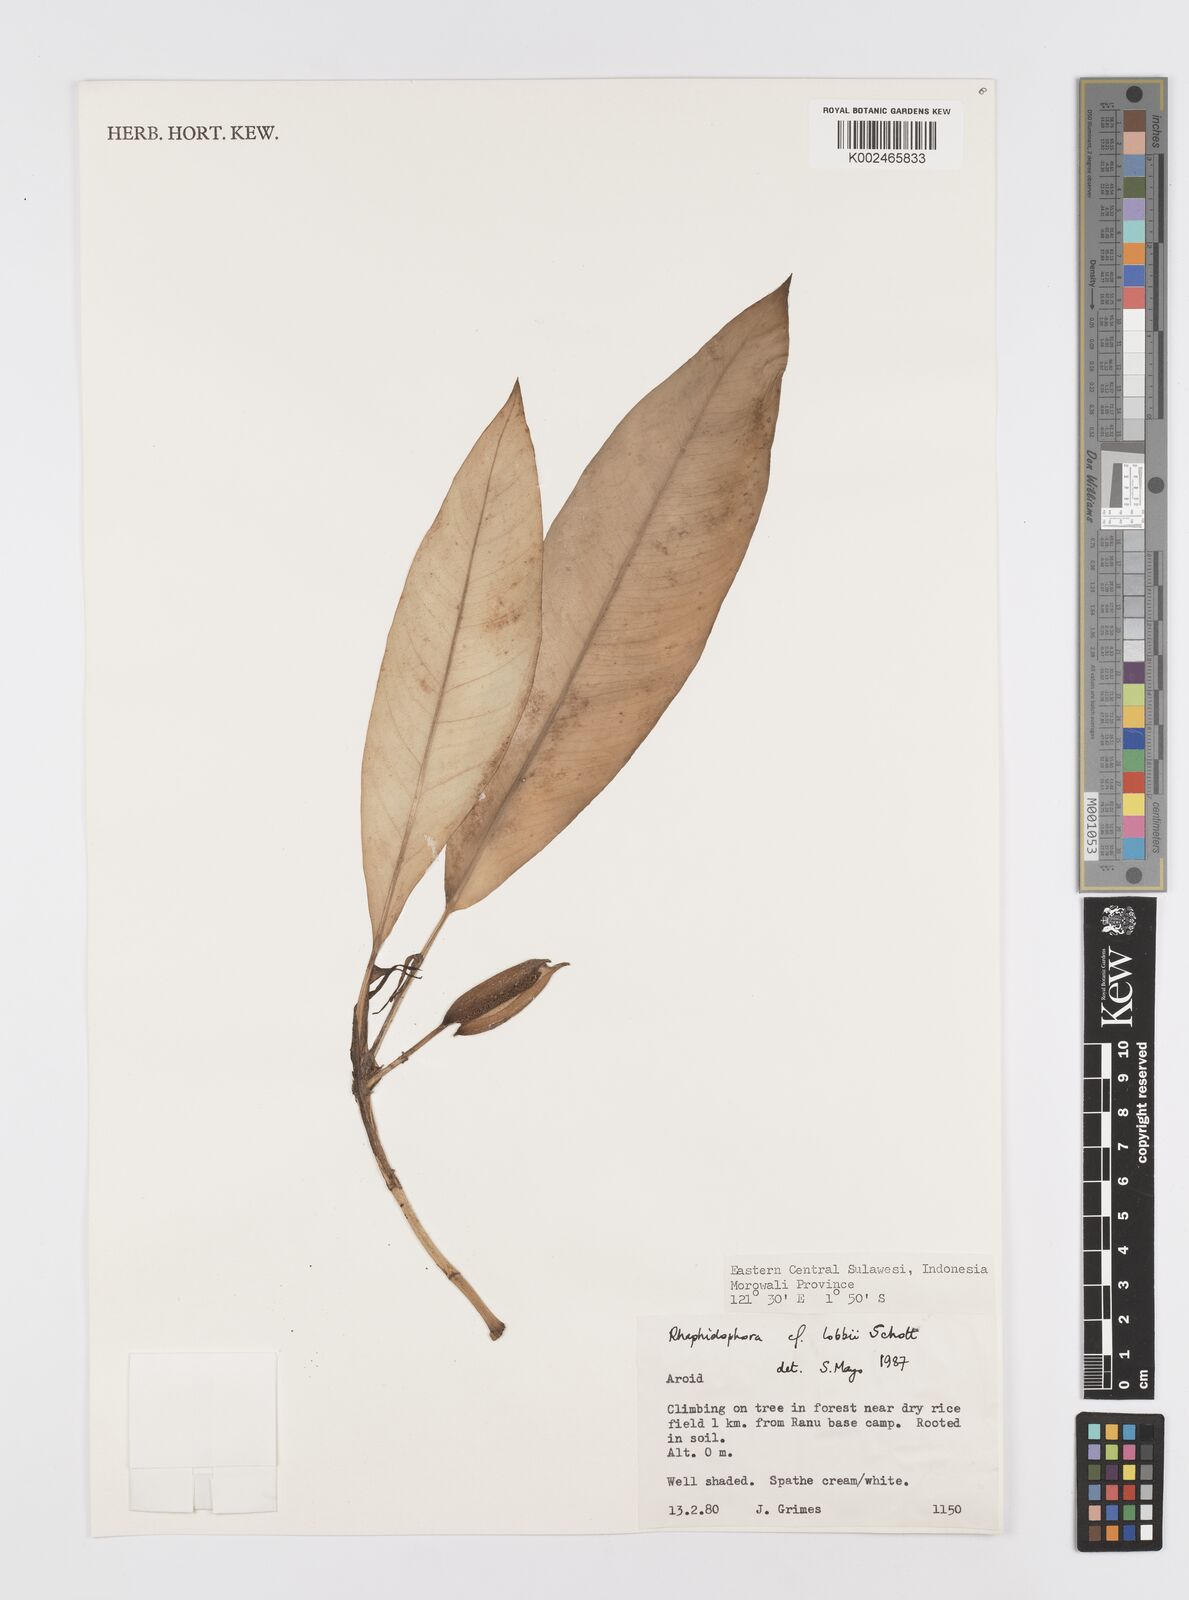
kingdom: Plantae
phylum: Tracheophyta
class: Liliopsida
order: Alismatales
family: Araceae
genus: Rhaphidophora
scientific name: Rhaphidophora lobbii
